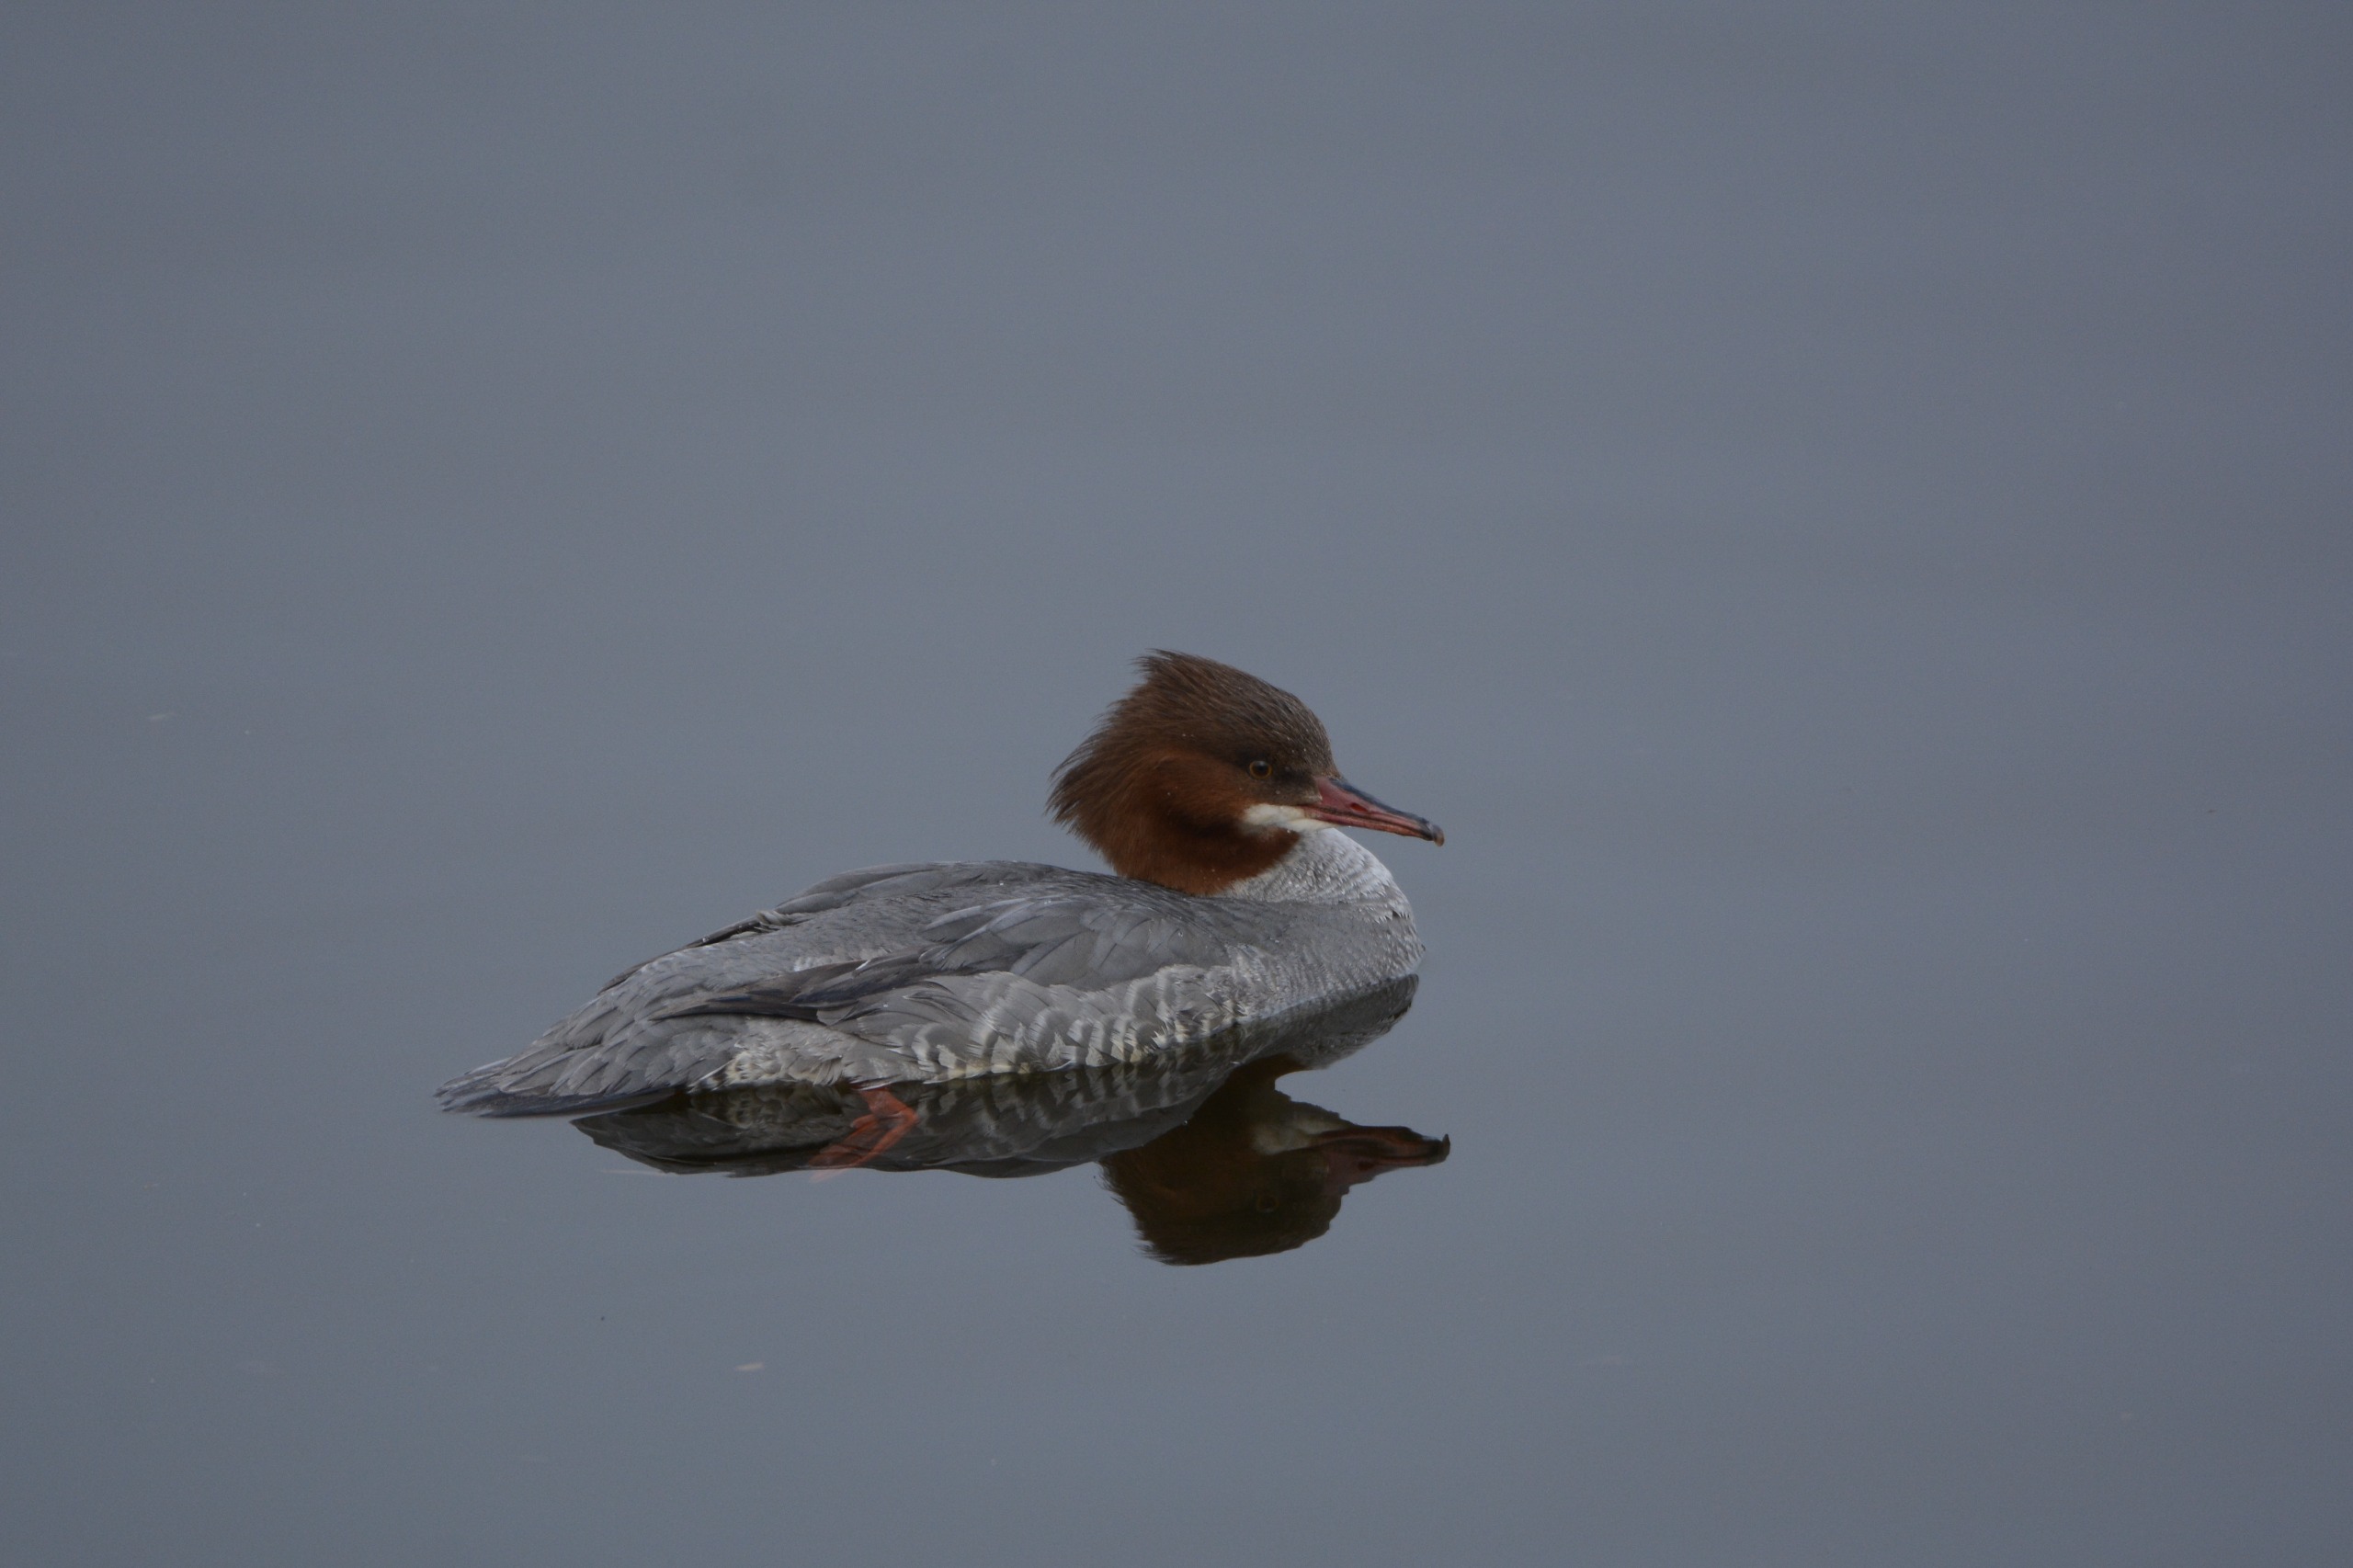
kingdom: Animalia
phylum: Chordata
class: Aves
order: Anseriformes
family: Anatidae
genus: Mergus
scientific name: Mergus merganser
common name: Stor skallesluger
